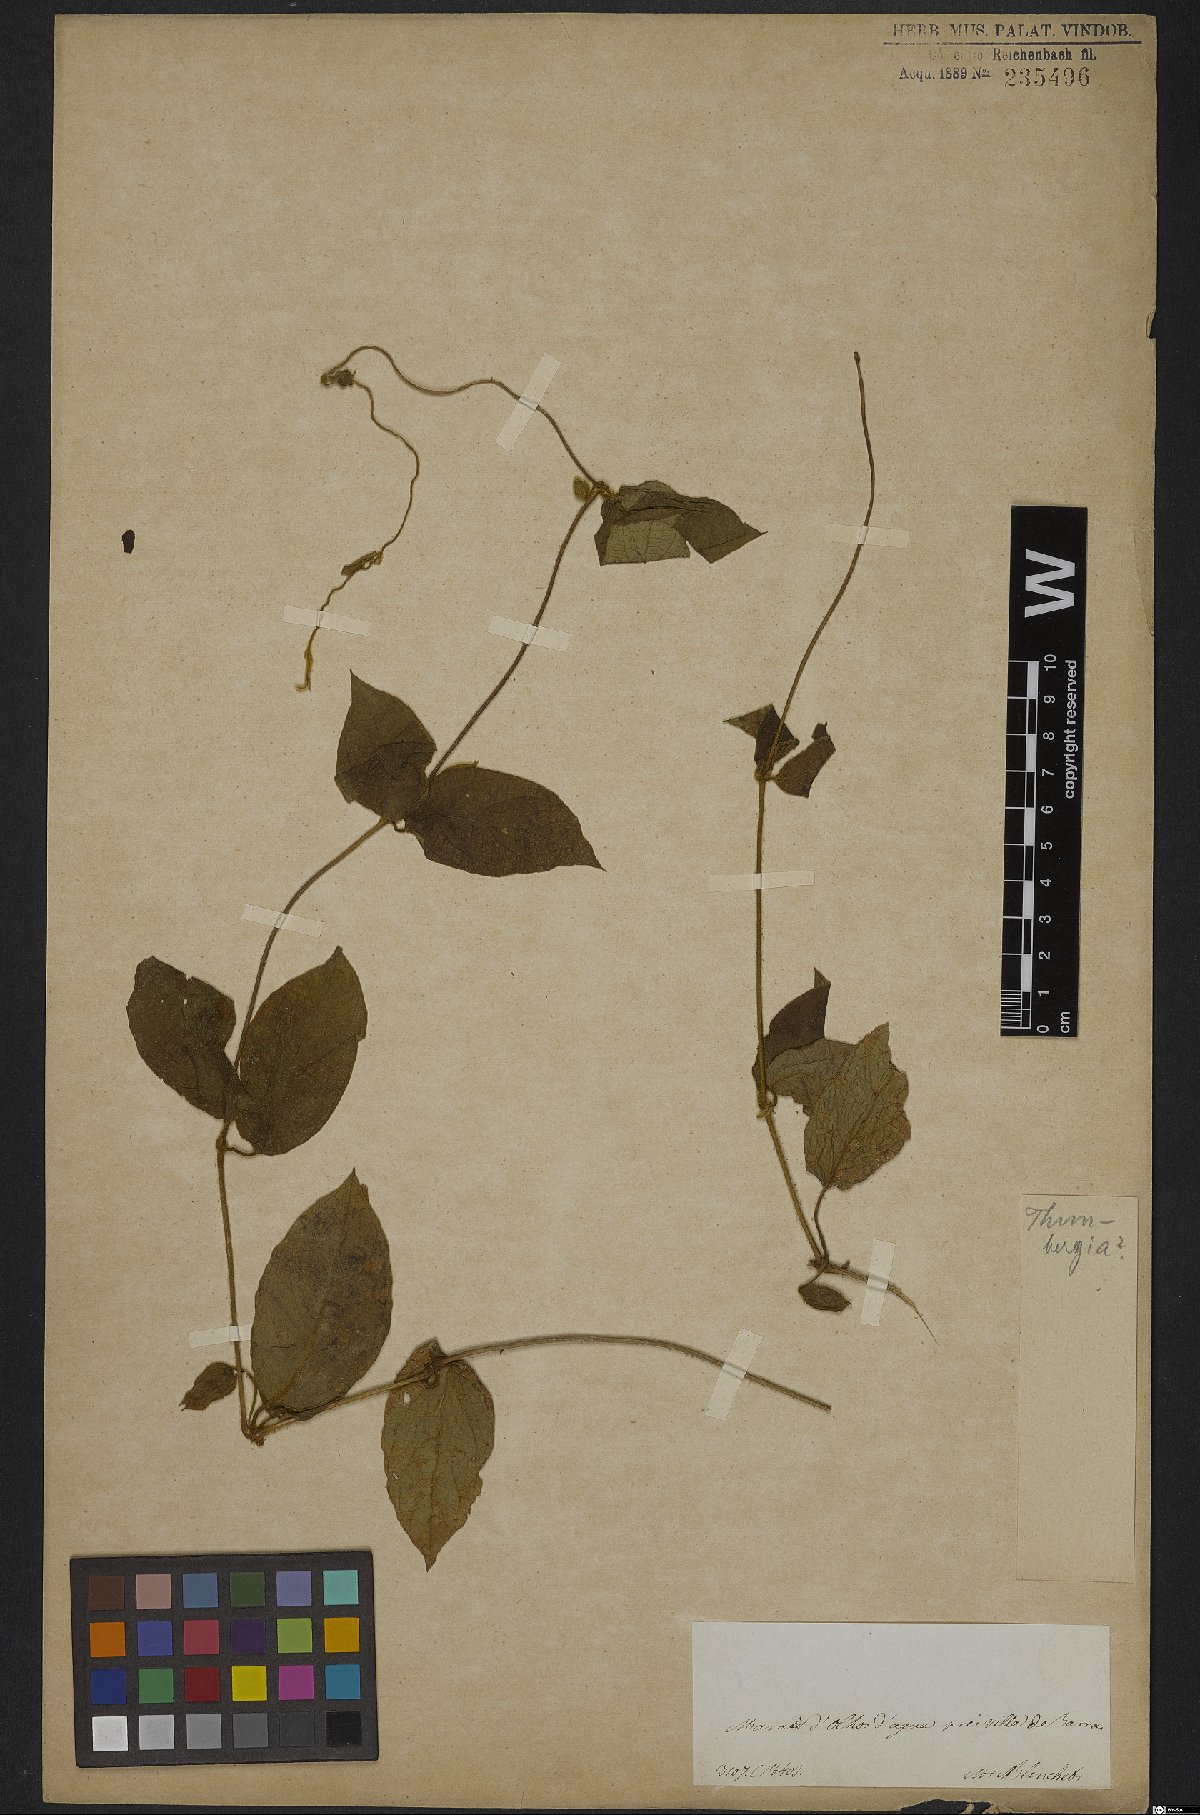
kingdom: Plantae
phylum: Tracheophyta
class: Magnoliopsida
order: Lamiales
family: Acanthaceae
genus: Thunbergia
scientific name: Thunbergia fragrans
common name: Whitelady
